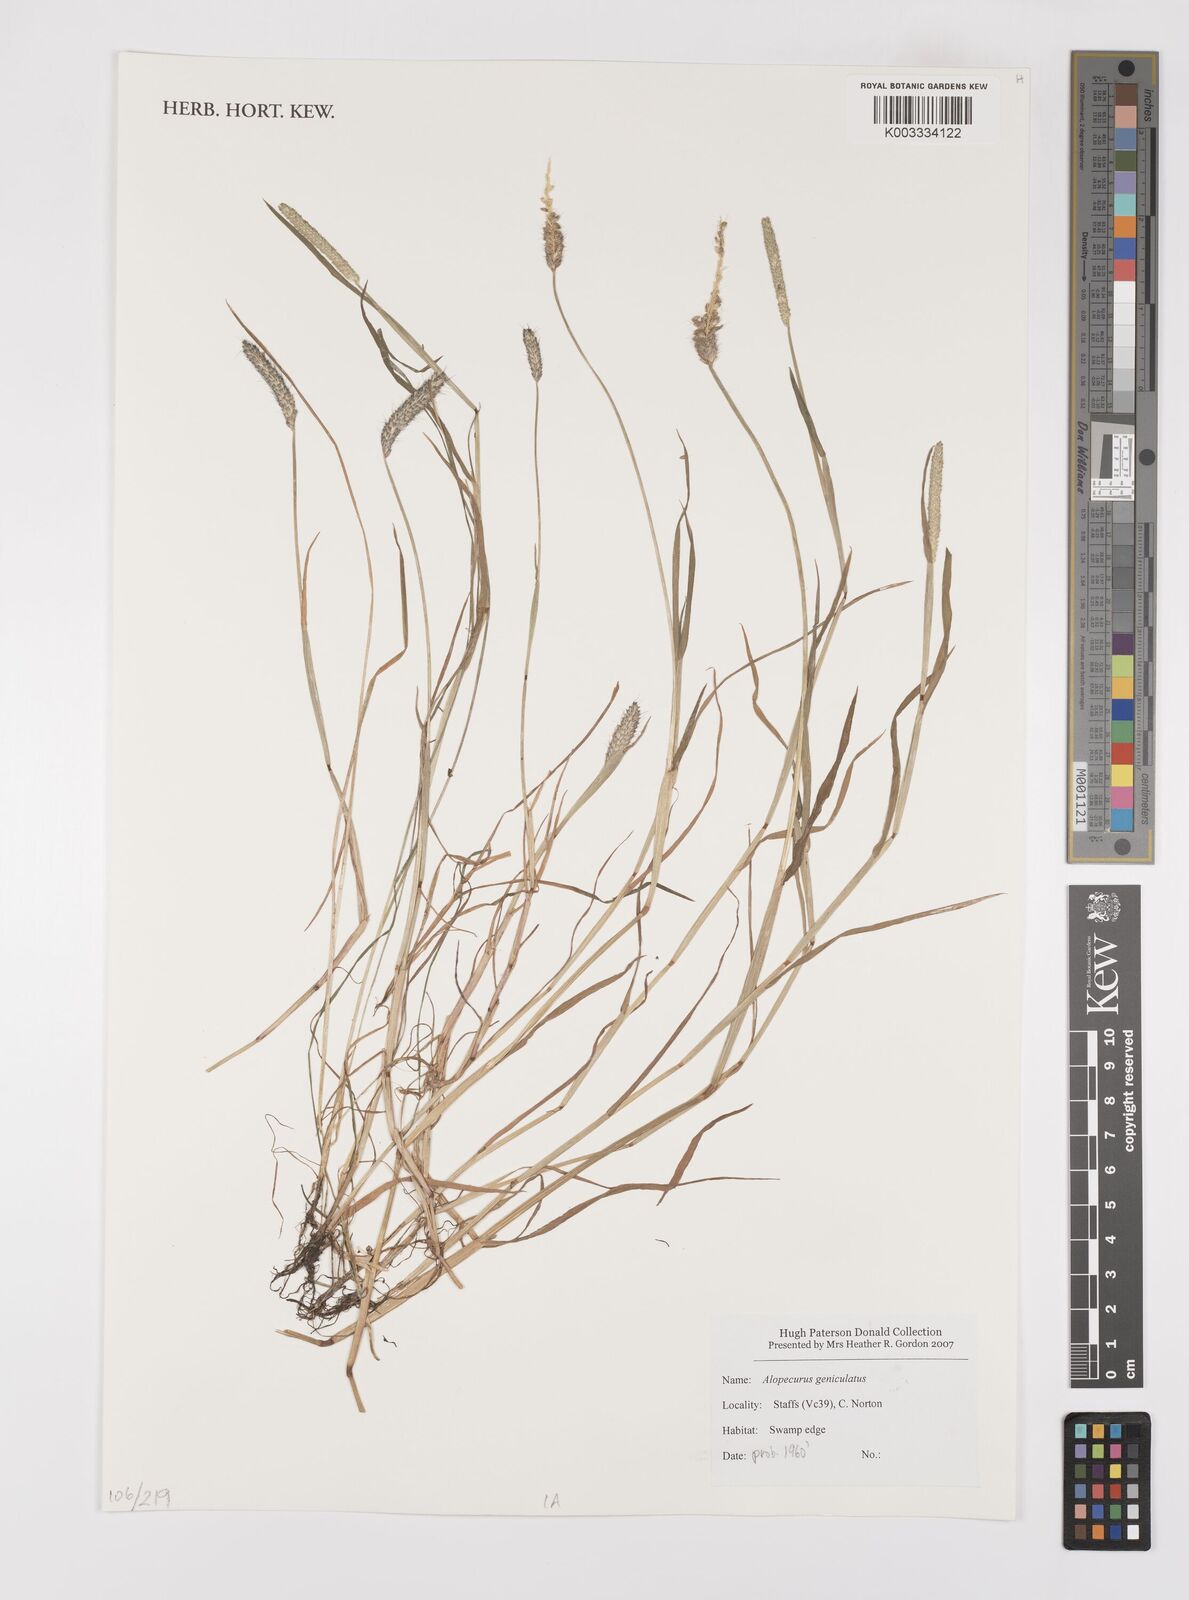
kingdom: Plantae
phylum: Tracheophyta
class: Liliopsida
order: Poales
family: Poaceae
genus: Alopecurus
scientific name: Alopecurus geniculatus
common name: Water foxtail
